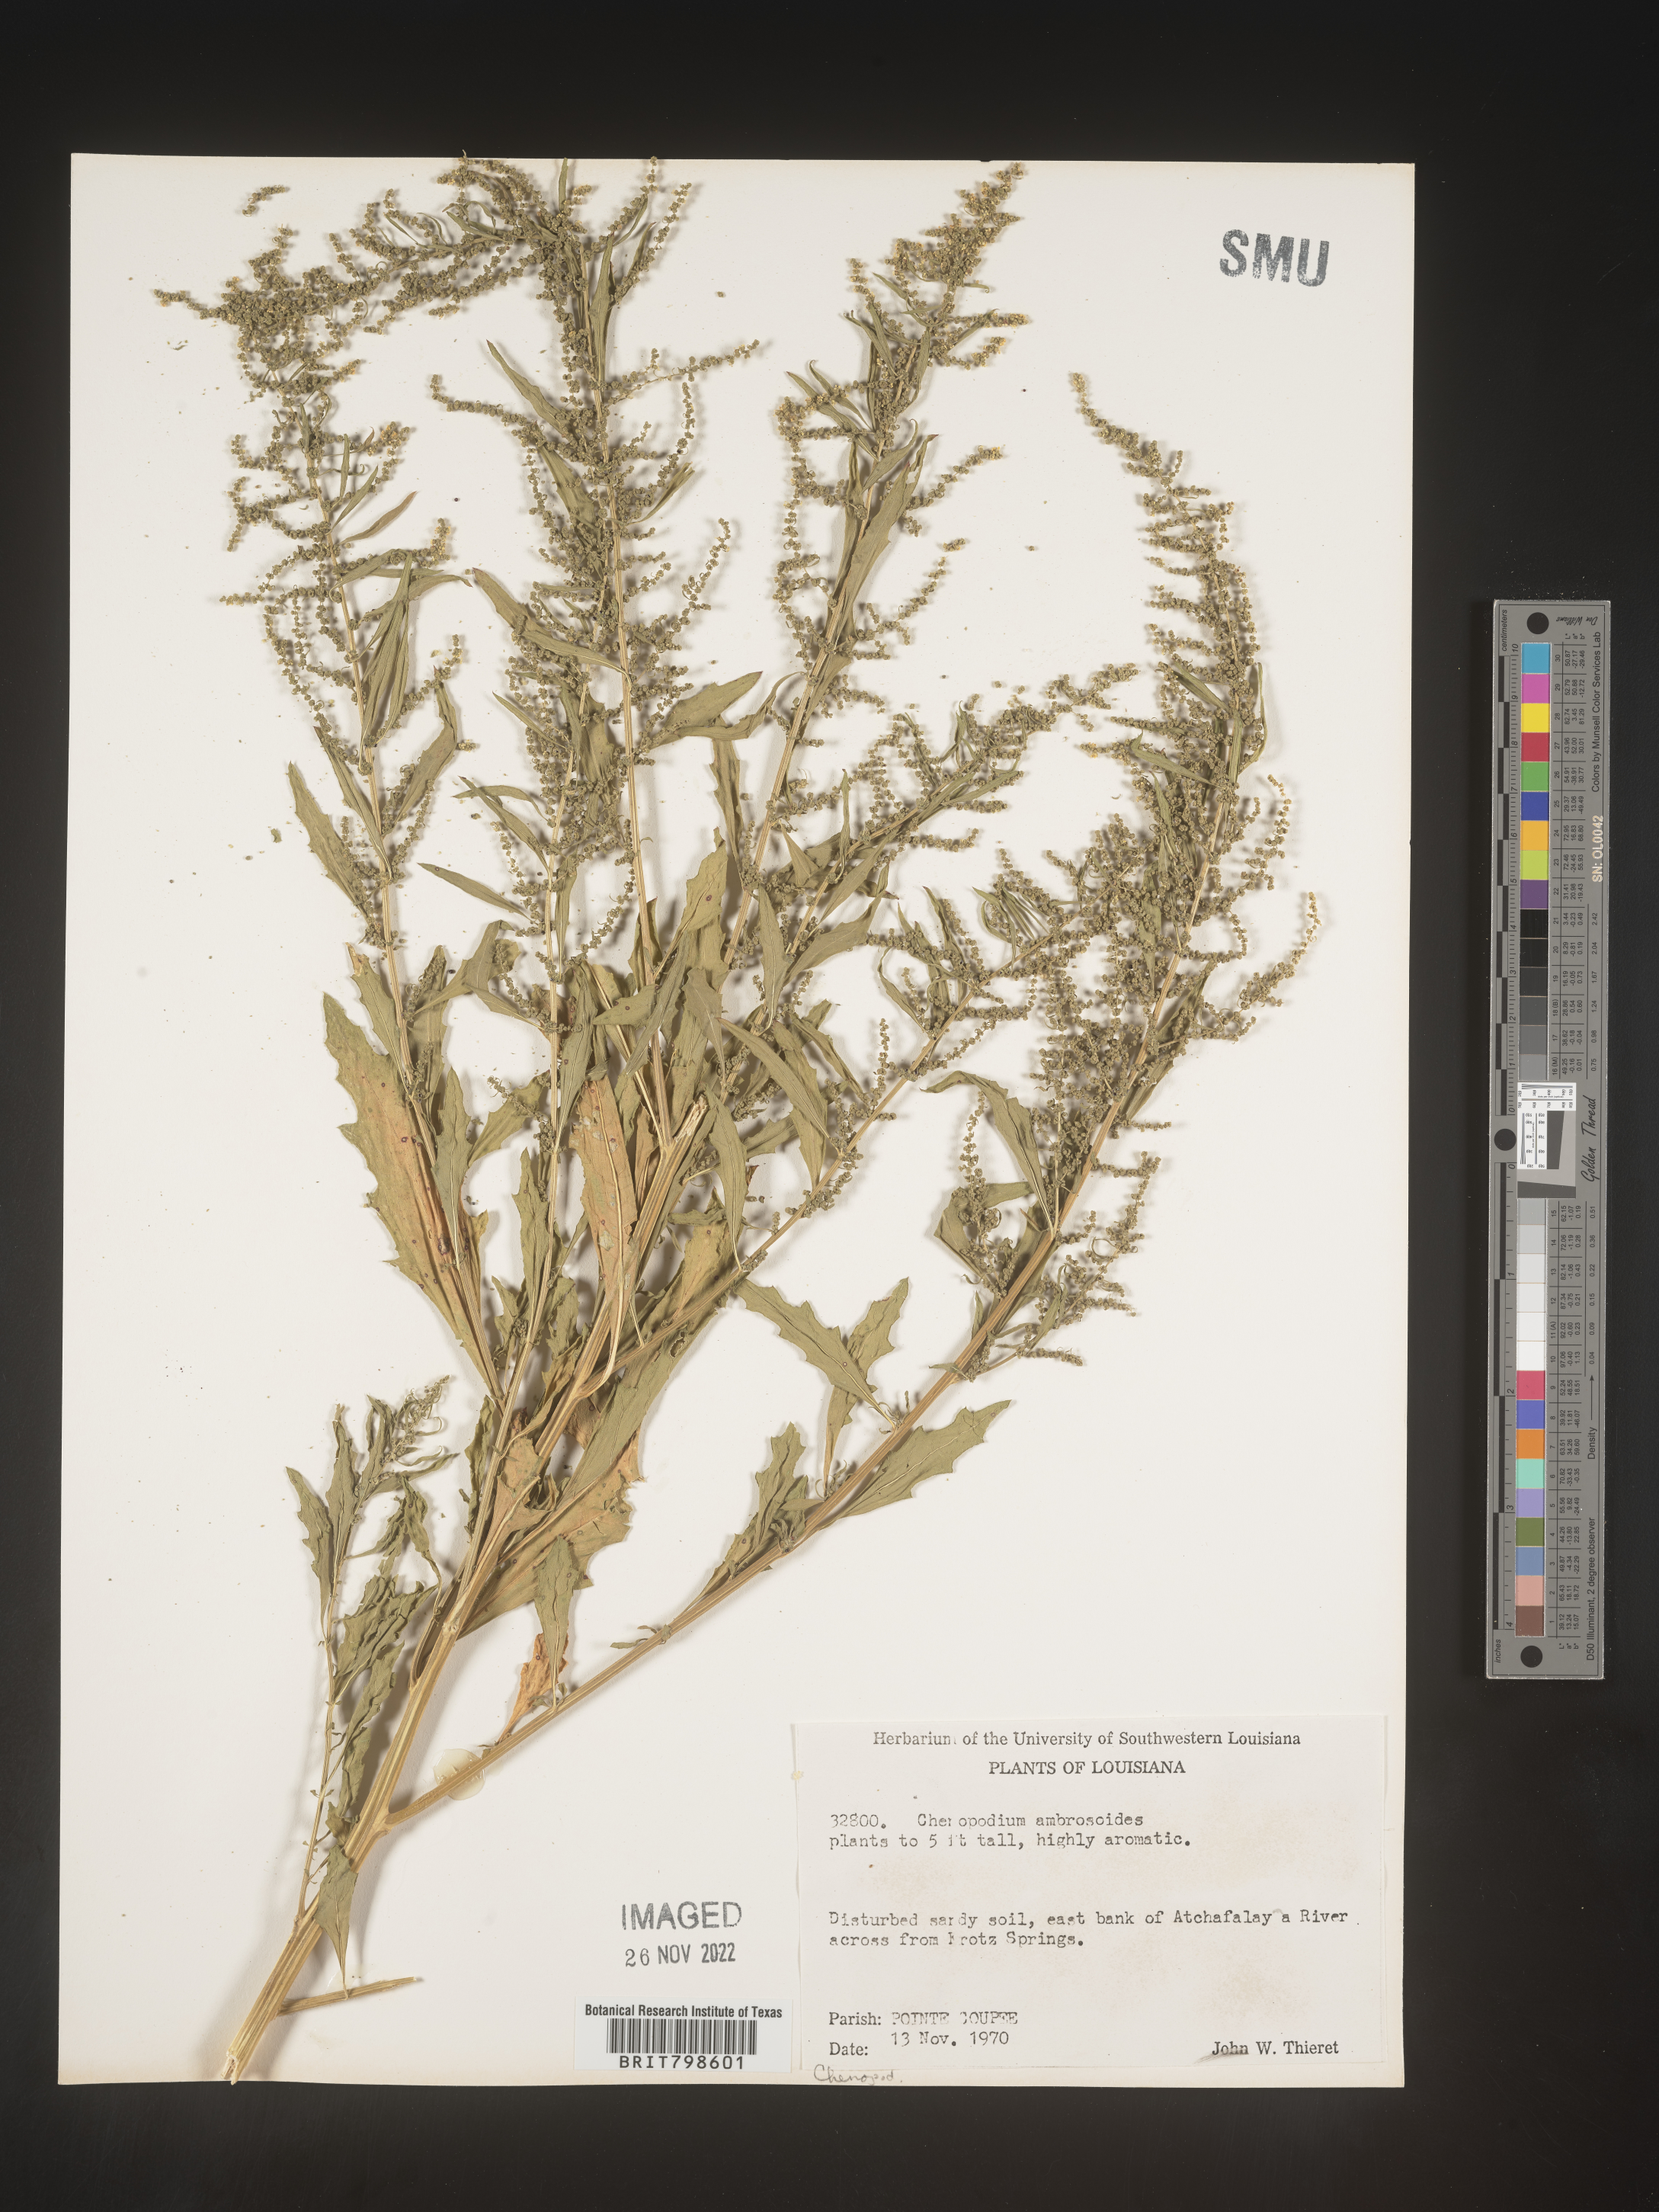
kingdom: Plantae
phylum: Tracheophyta
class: Magnoliopsida
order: Caryophyllales
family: Amaranthaceae
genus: Dysphania
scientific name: Dysphania ambrosioides
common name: Wormseed
